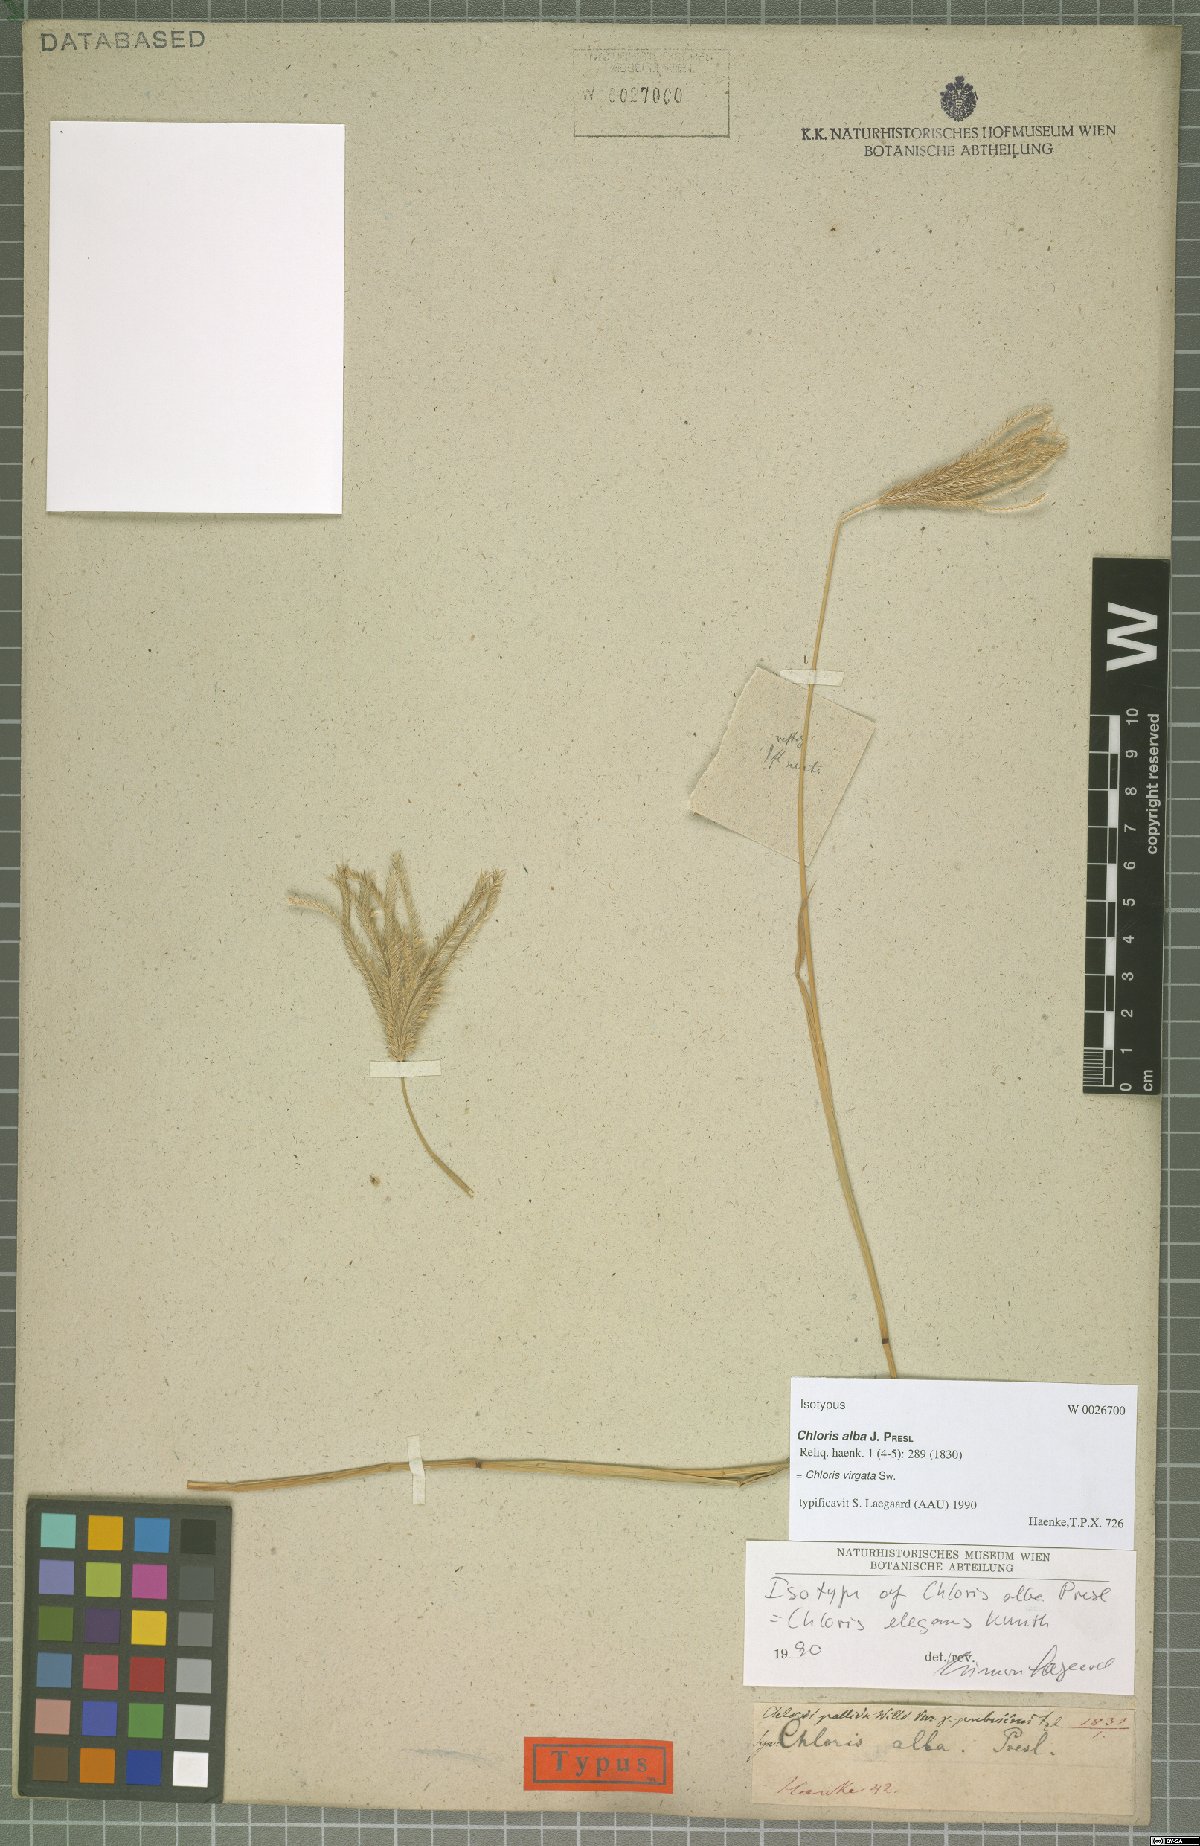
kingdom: Plantae
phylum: Tracheophyta
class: Liliopsida
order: Poales
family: Poaceae
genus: Chloris
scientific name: Chloris virgata
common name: Feathery rhodes-grass
